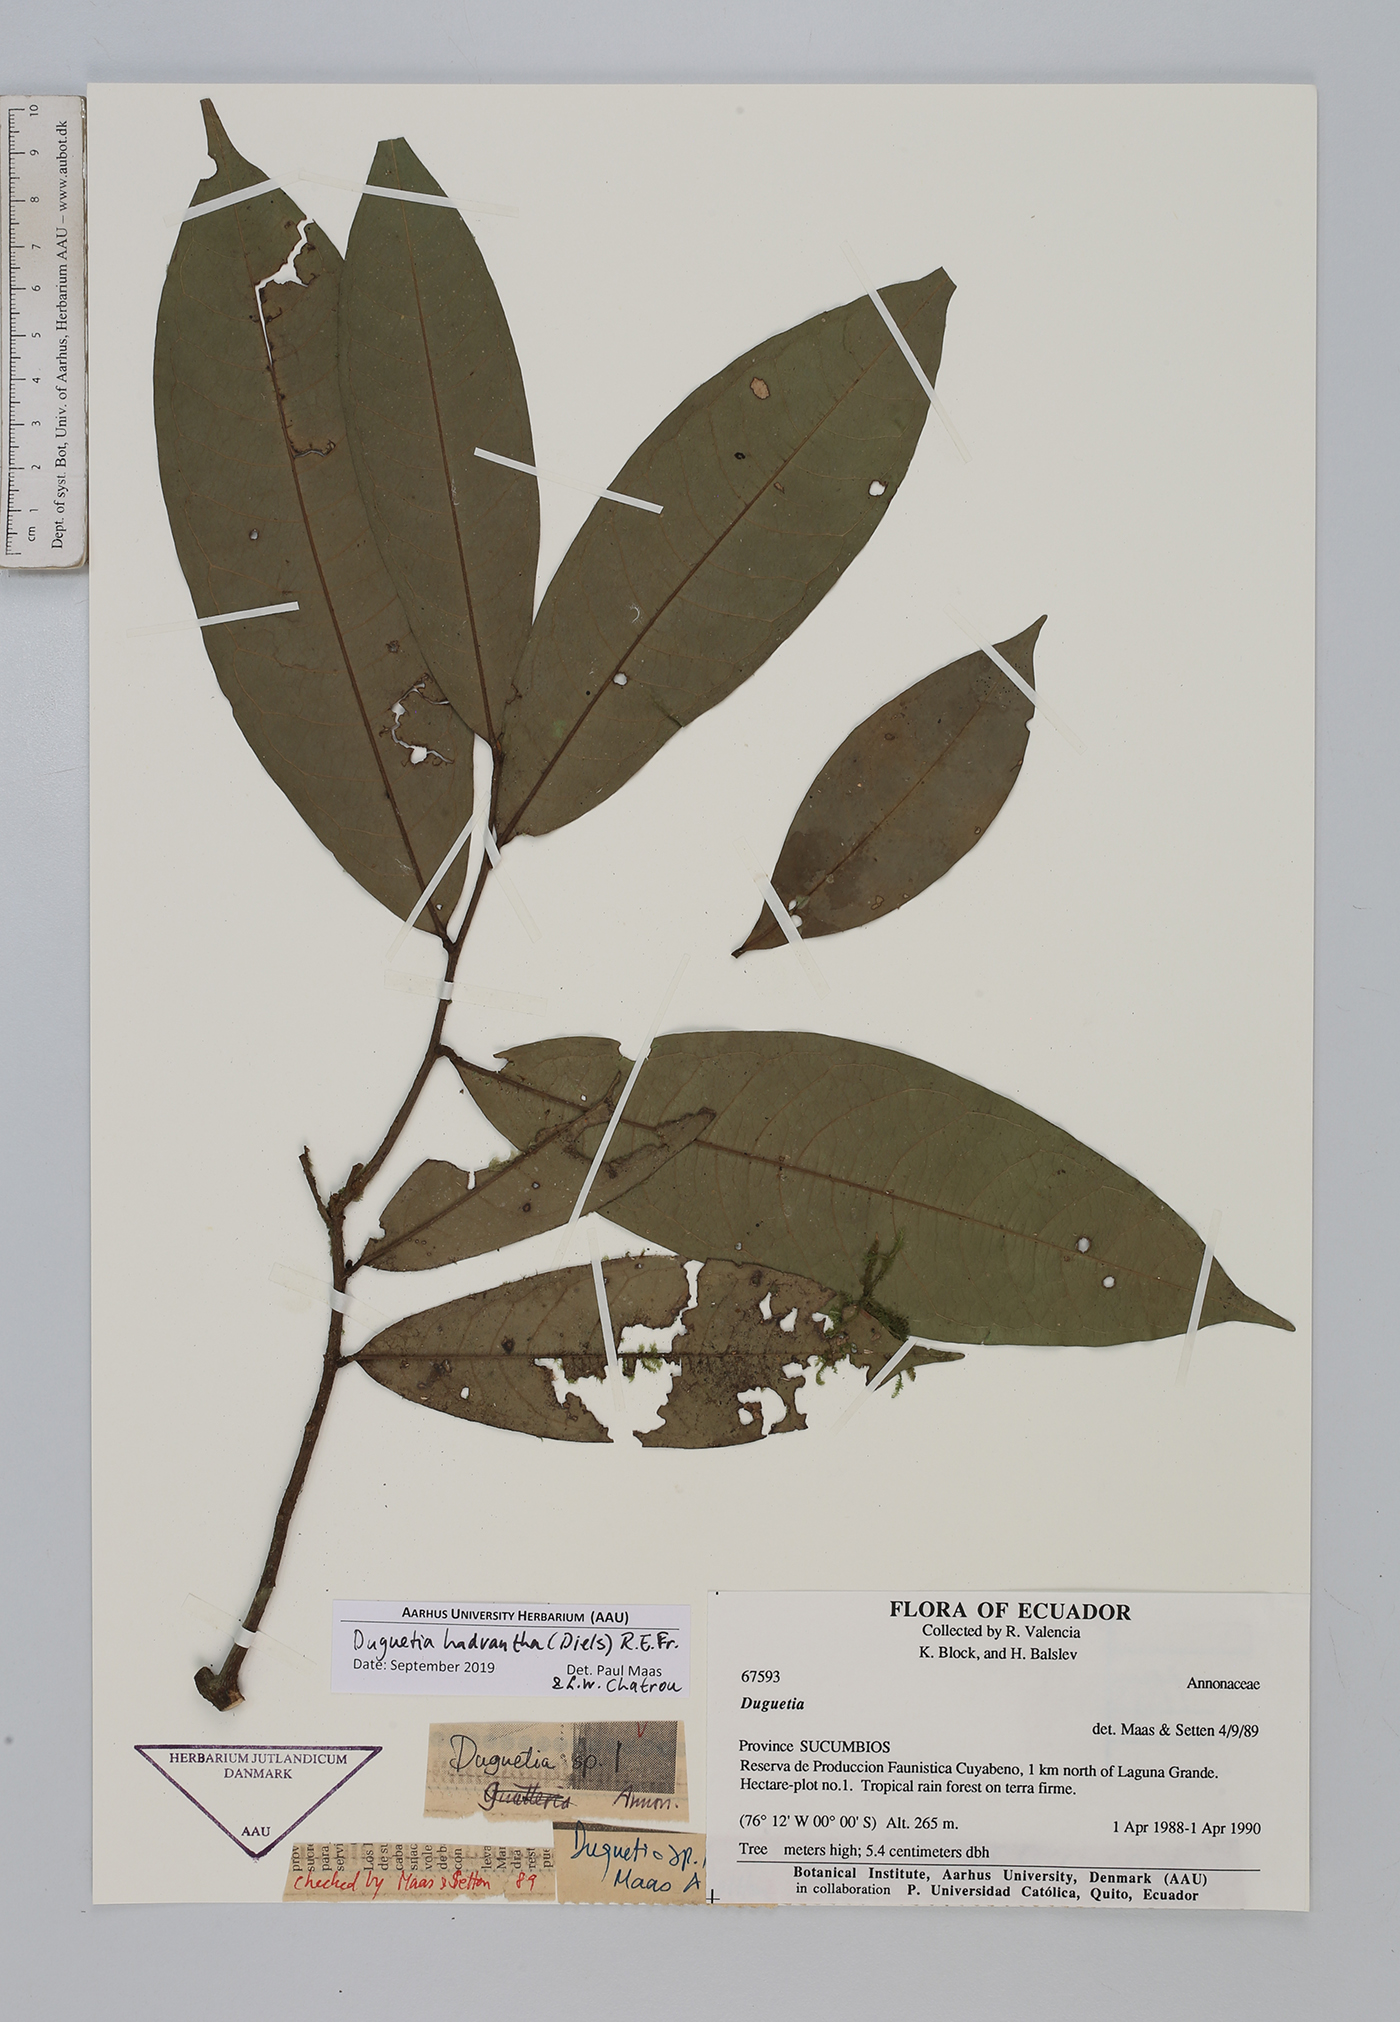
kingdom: Plantae
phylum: Tracheophyta
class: Magnoliopsida
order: Magnoliales
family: Annonaceae
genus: Duguetia
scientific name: Duguetia hadrantha
